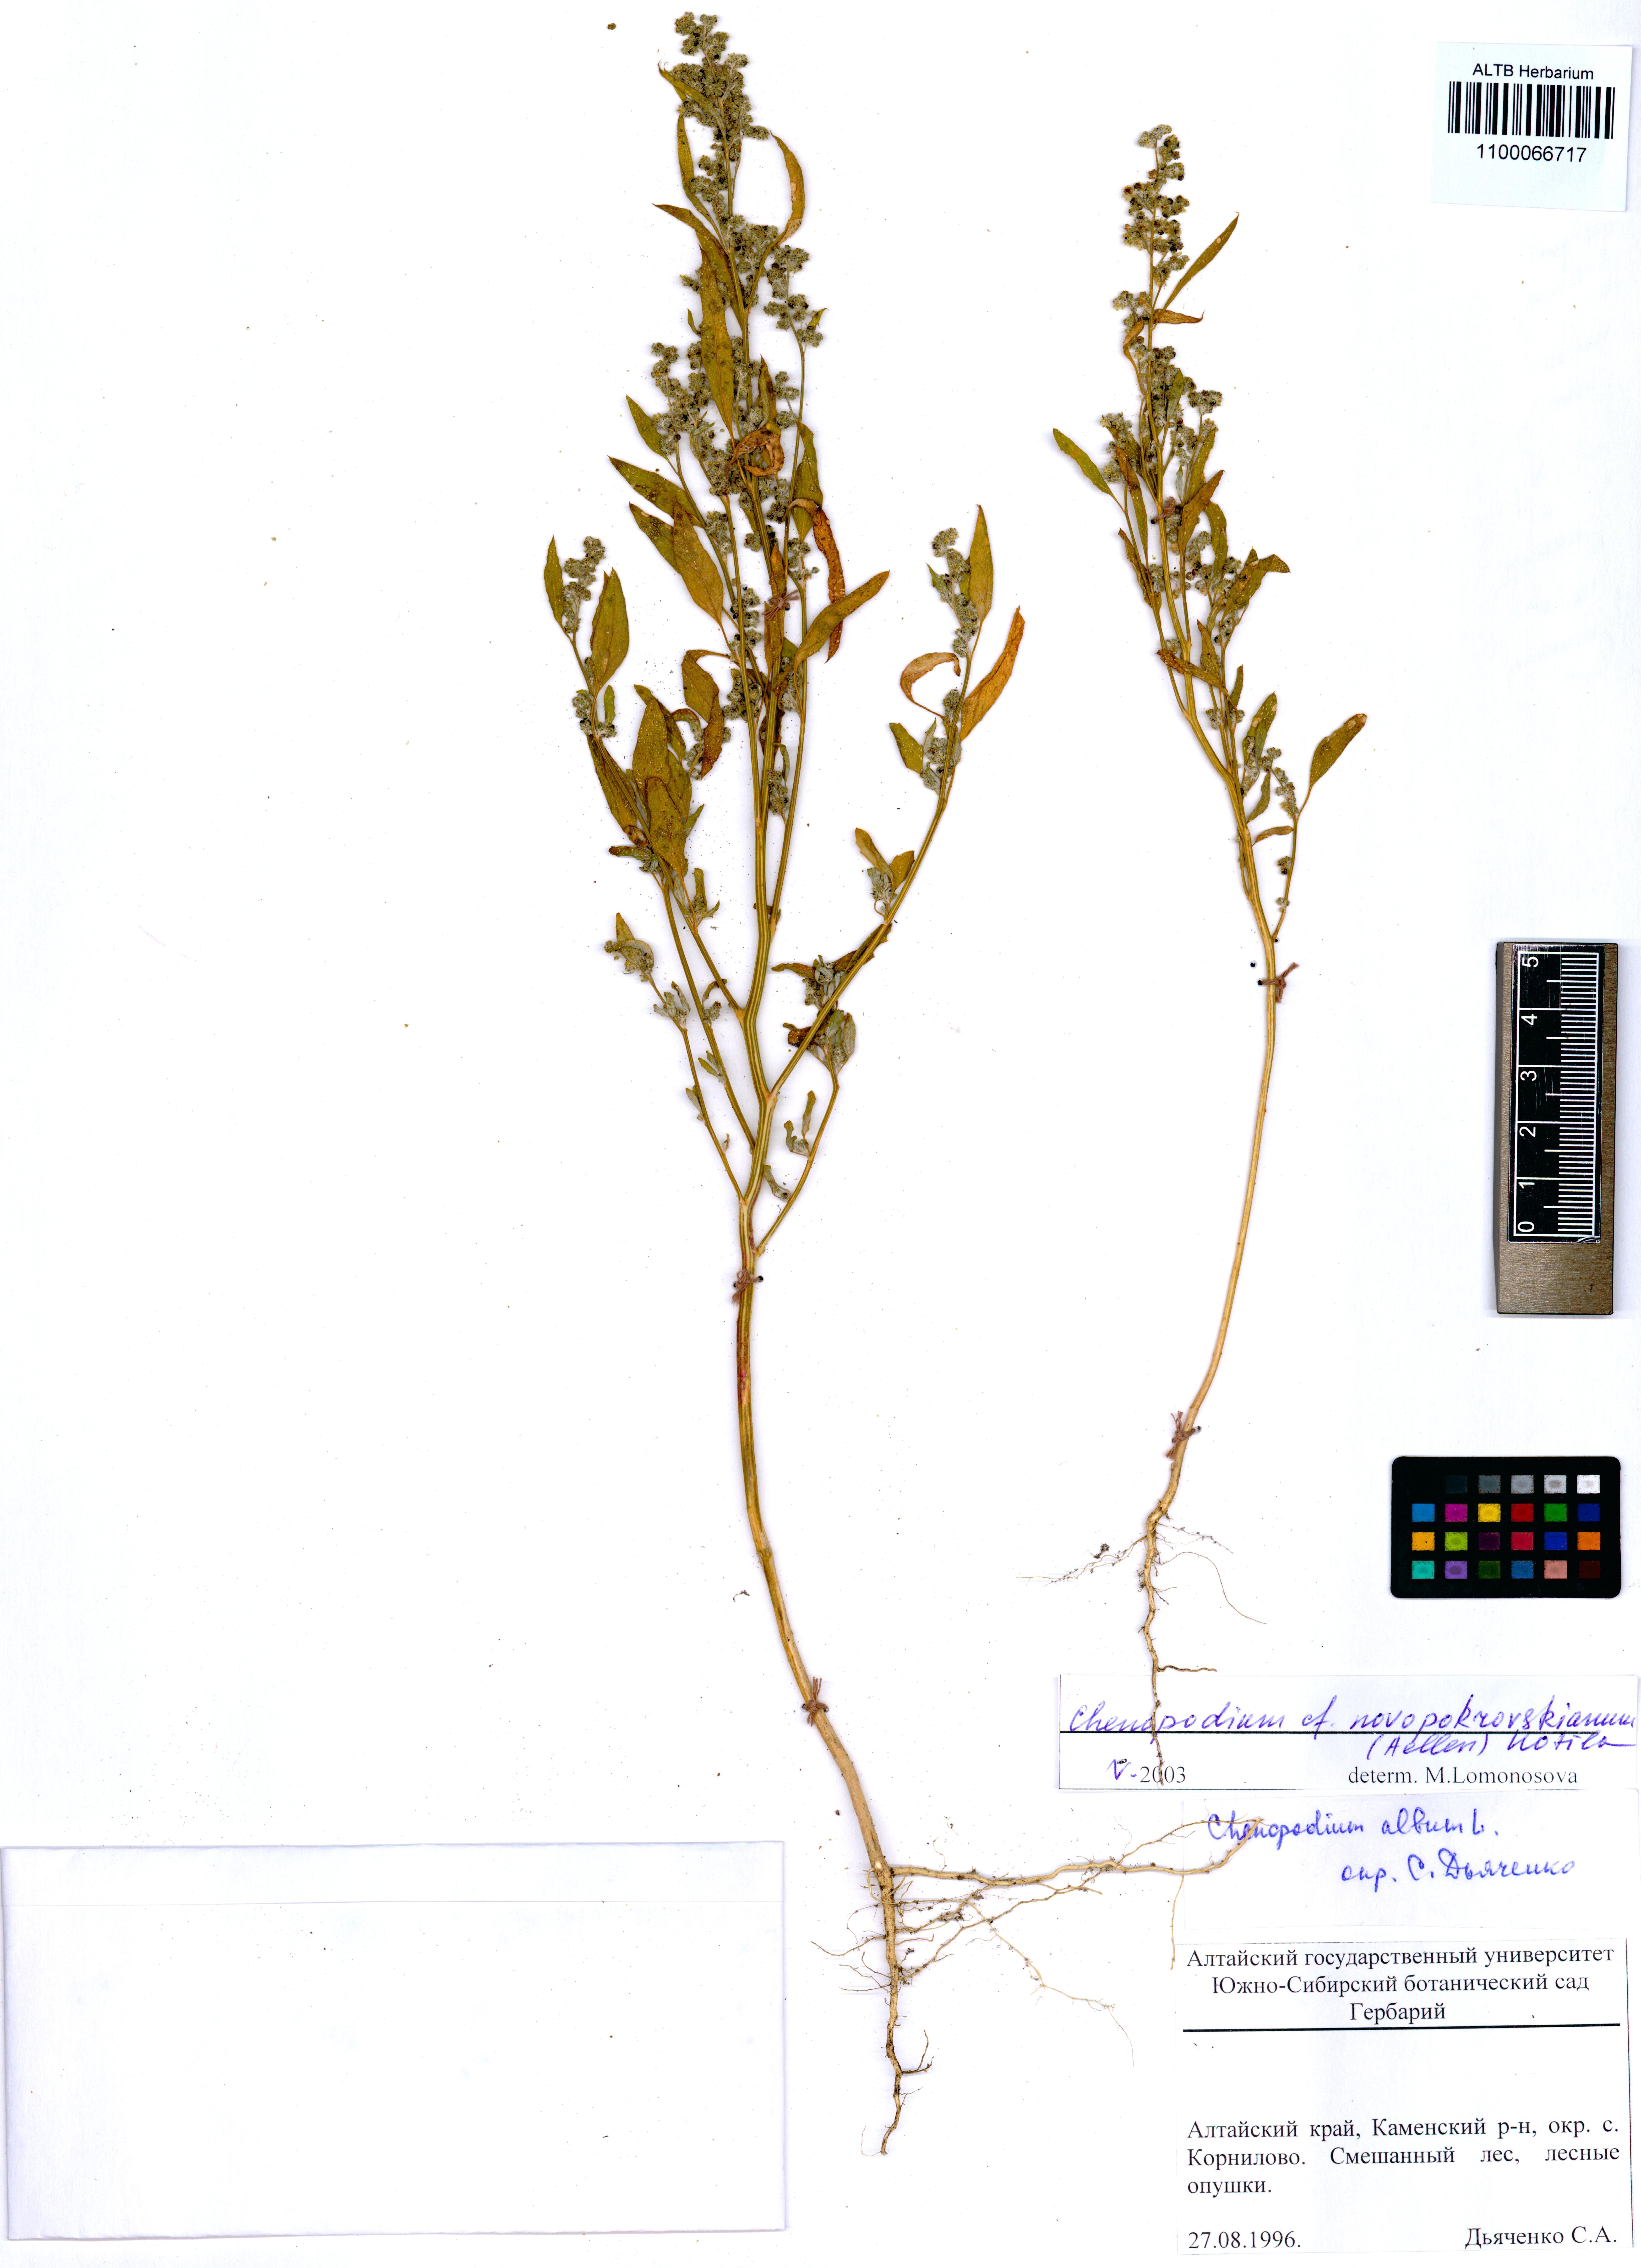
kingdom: Plantae
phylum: Tracheophyta
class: Magnoliopsida
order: Caryophyllales
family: Amaranthaceae
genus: Chenopodium
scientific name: Chenopodium novopokrovskyanum
